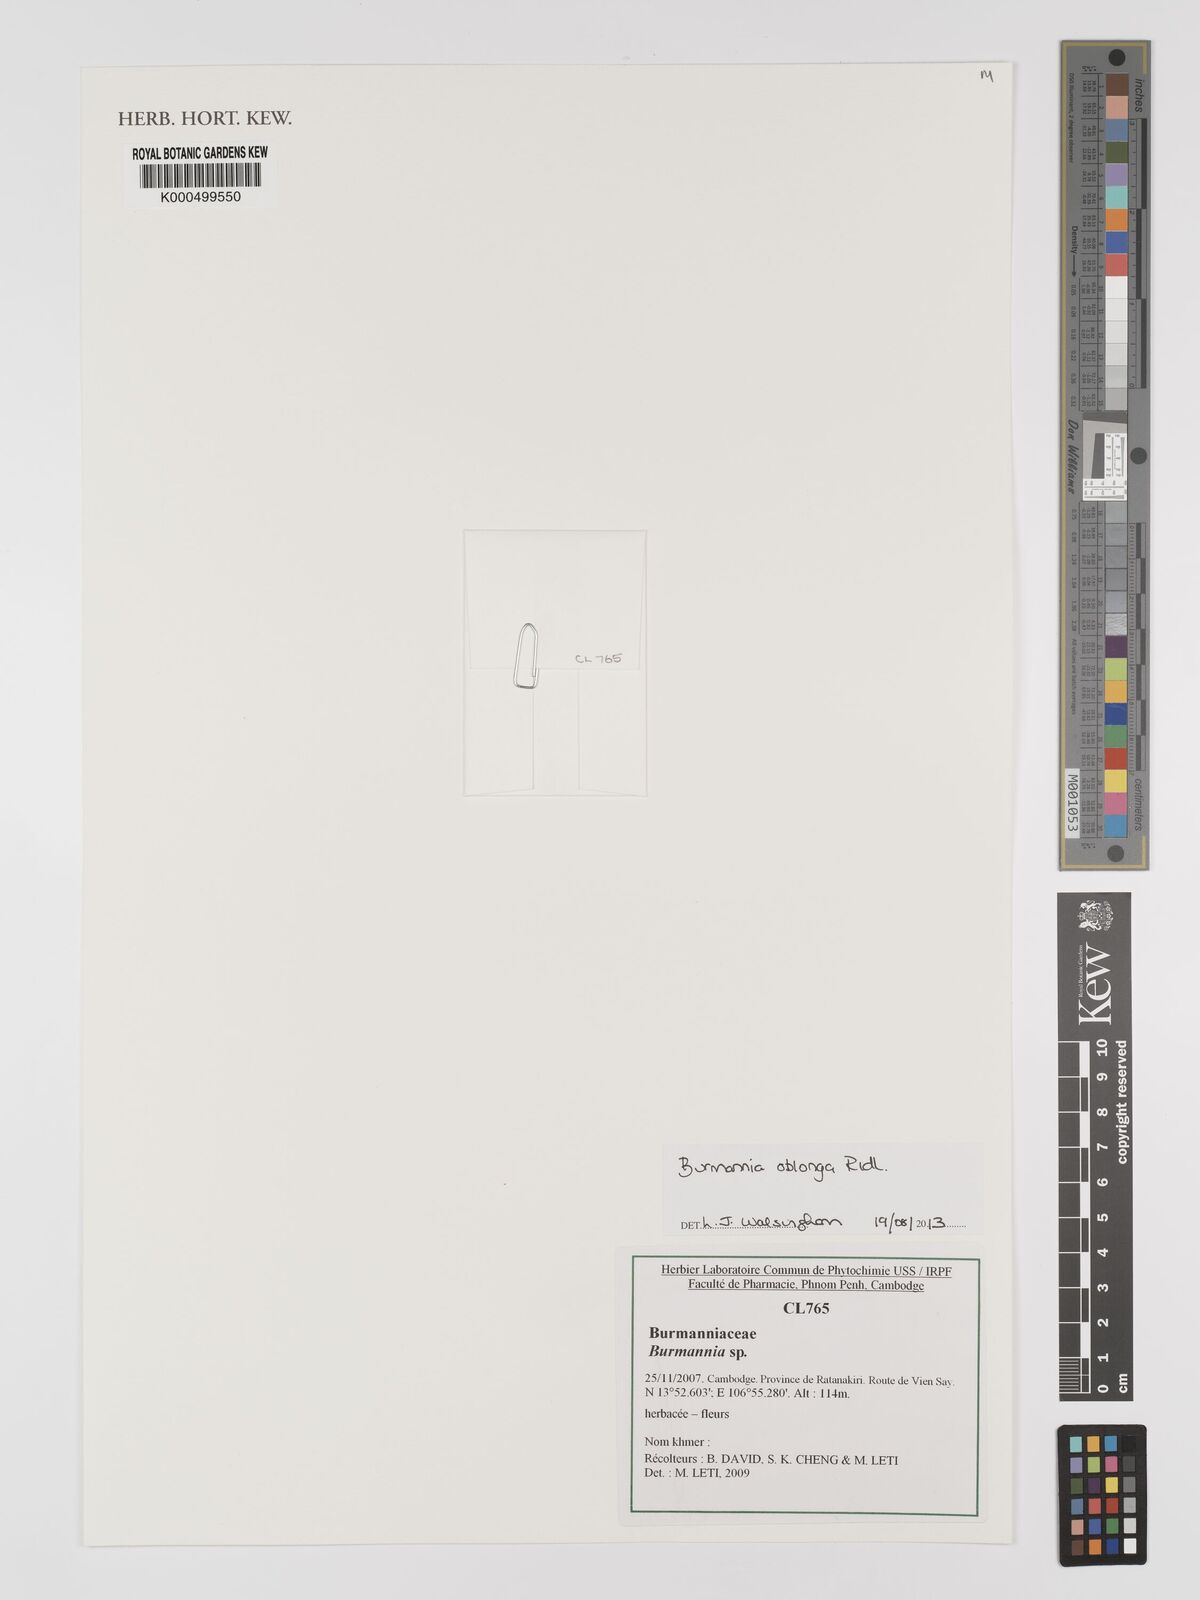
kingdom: Plantae
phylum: Tracheophyta
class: Liliopsida
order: Dioscoreales
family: Burmanniaceae
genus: Burmannia
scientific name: Burmannia oblonga
